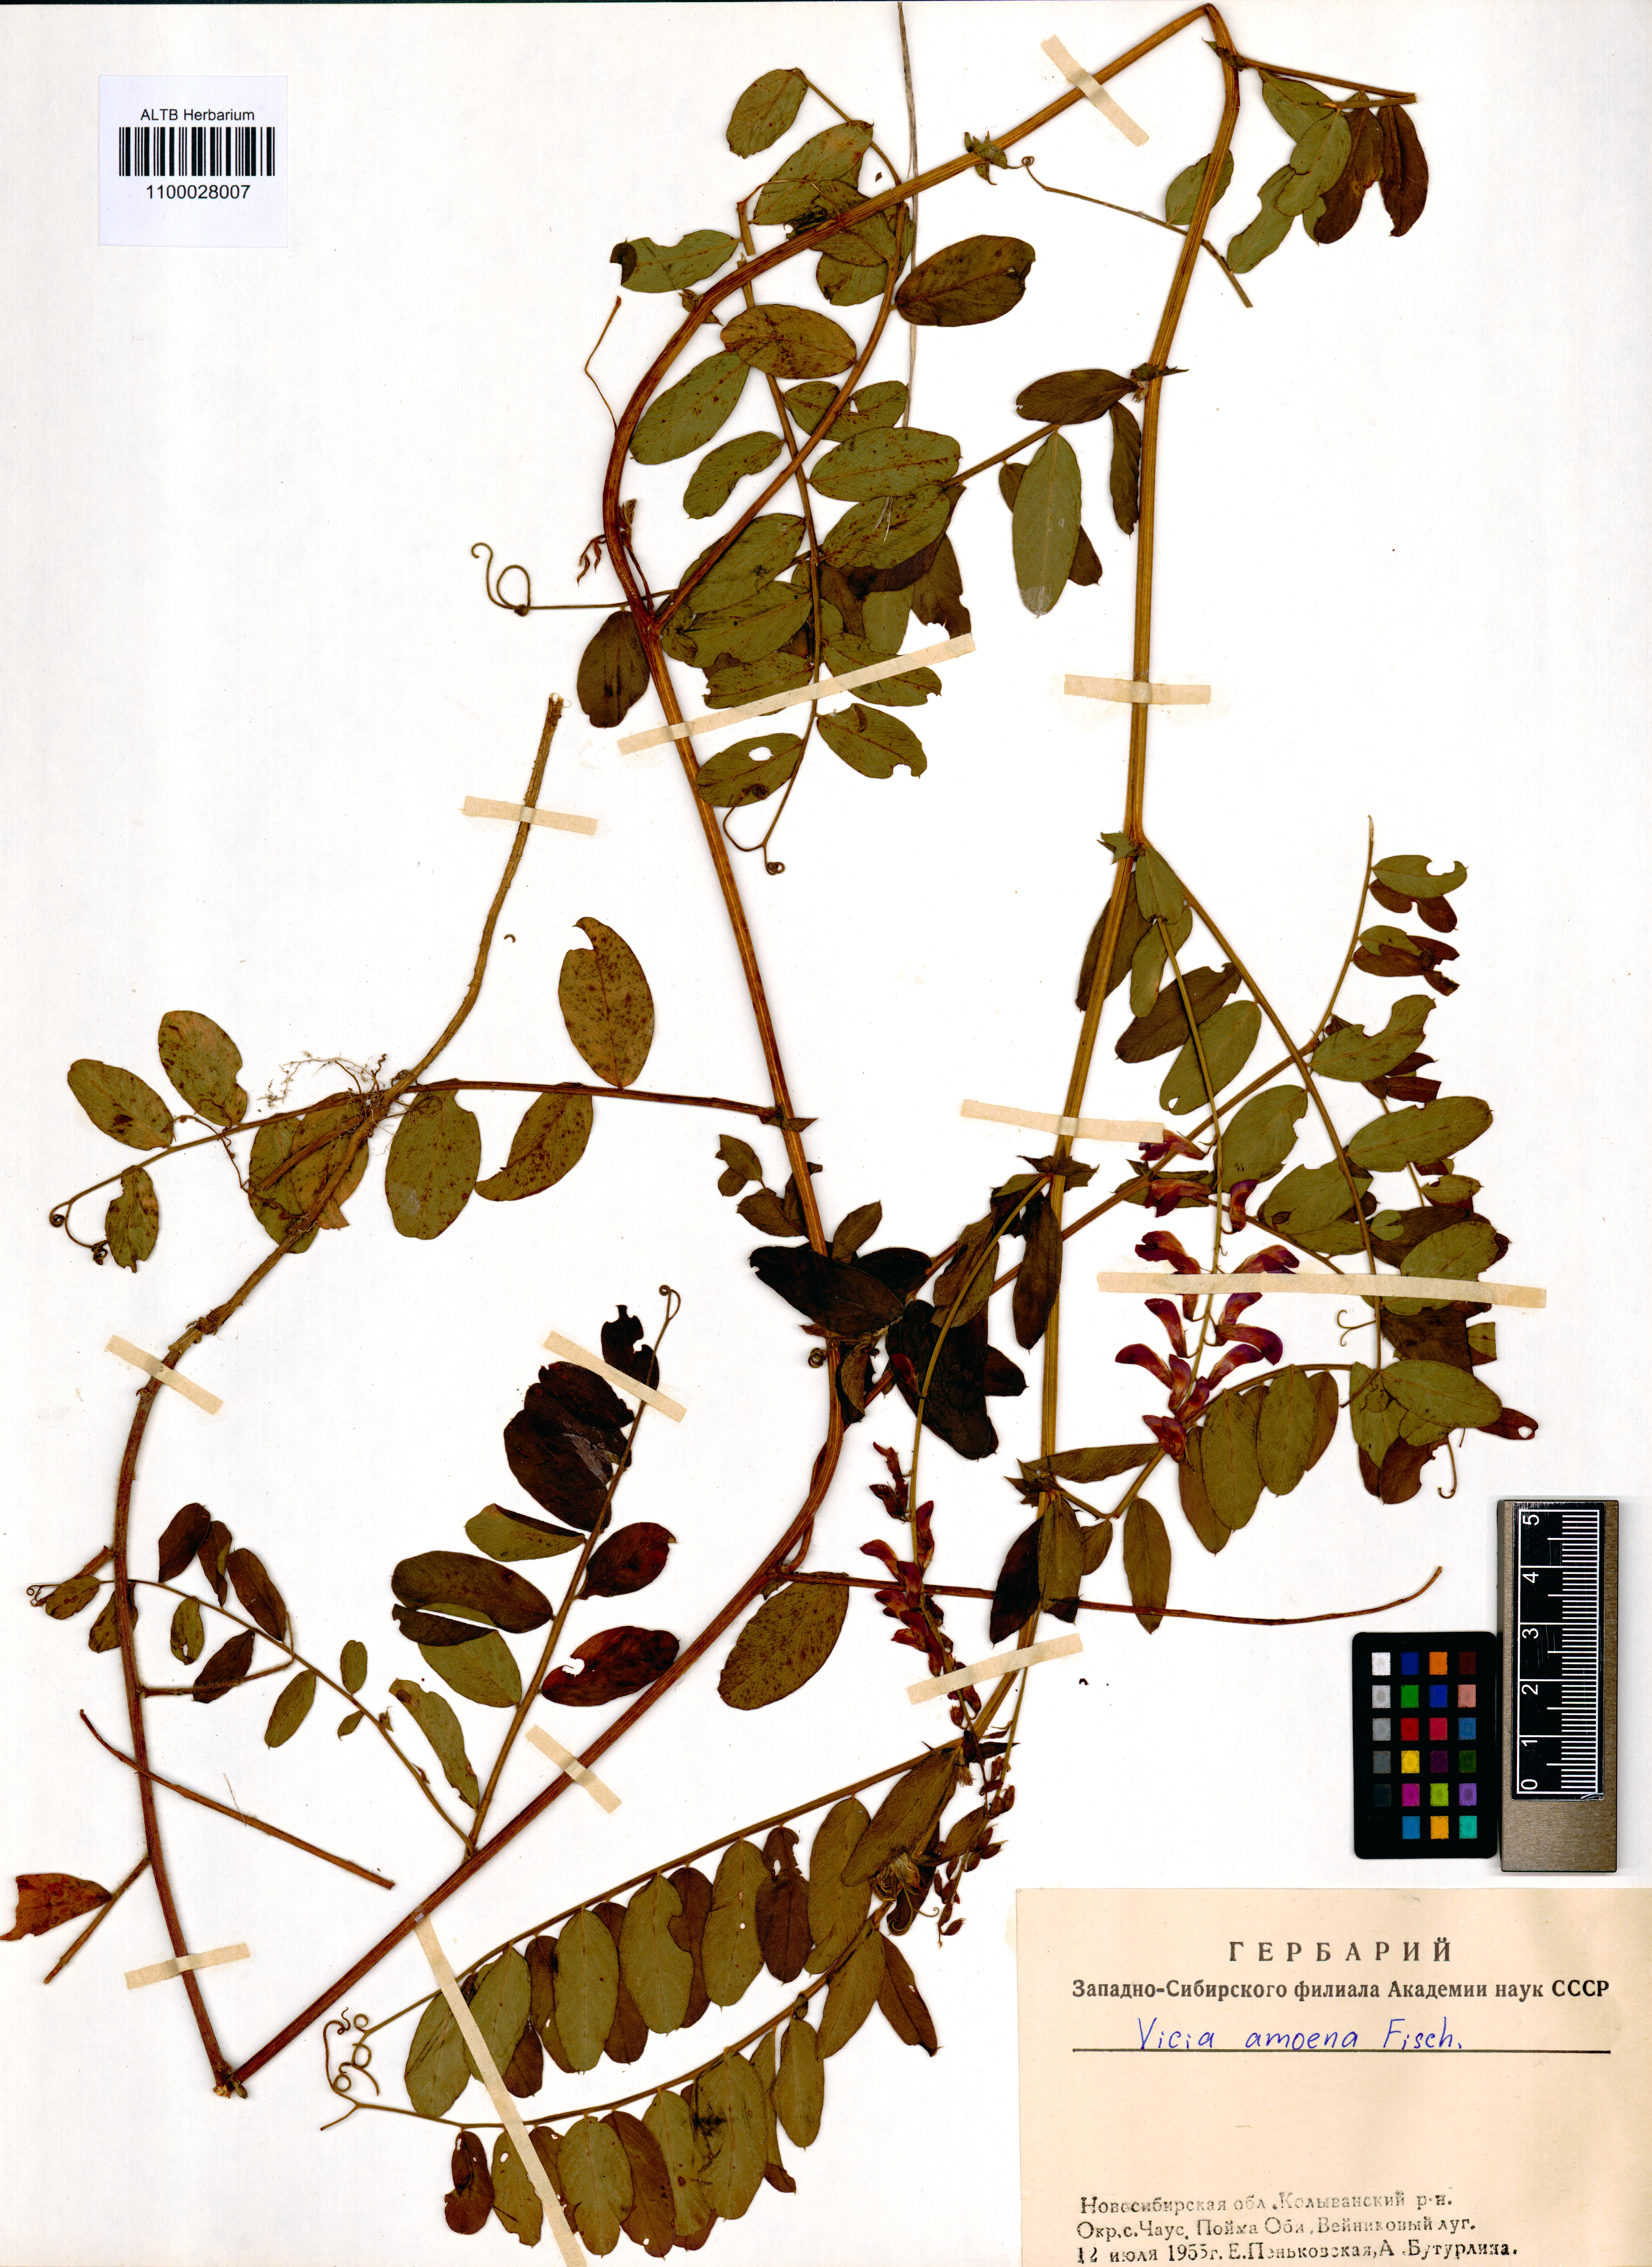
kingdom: Plantae
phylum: Tracheophyta
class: Magnoliopsida
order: Fabales
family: Fabaceae
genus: Vicia
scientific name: Vicia amoena
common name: Cheder ebs
